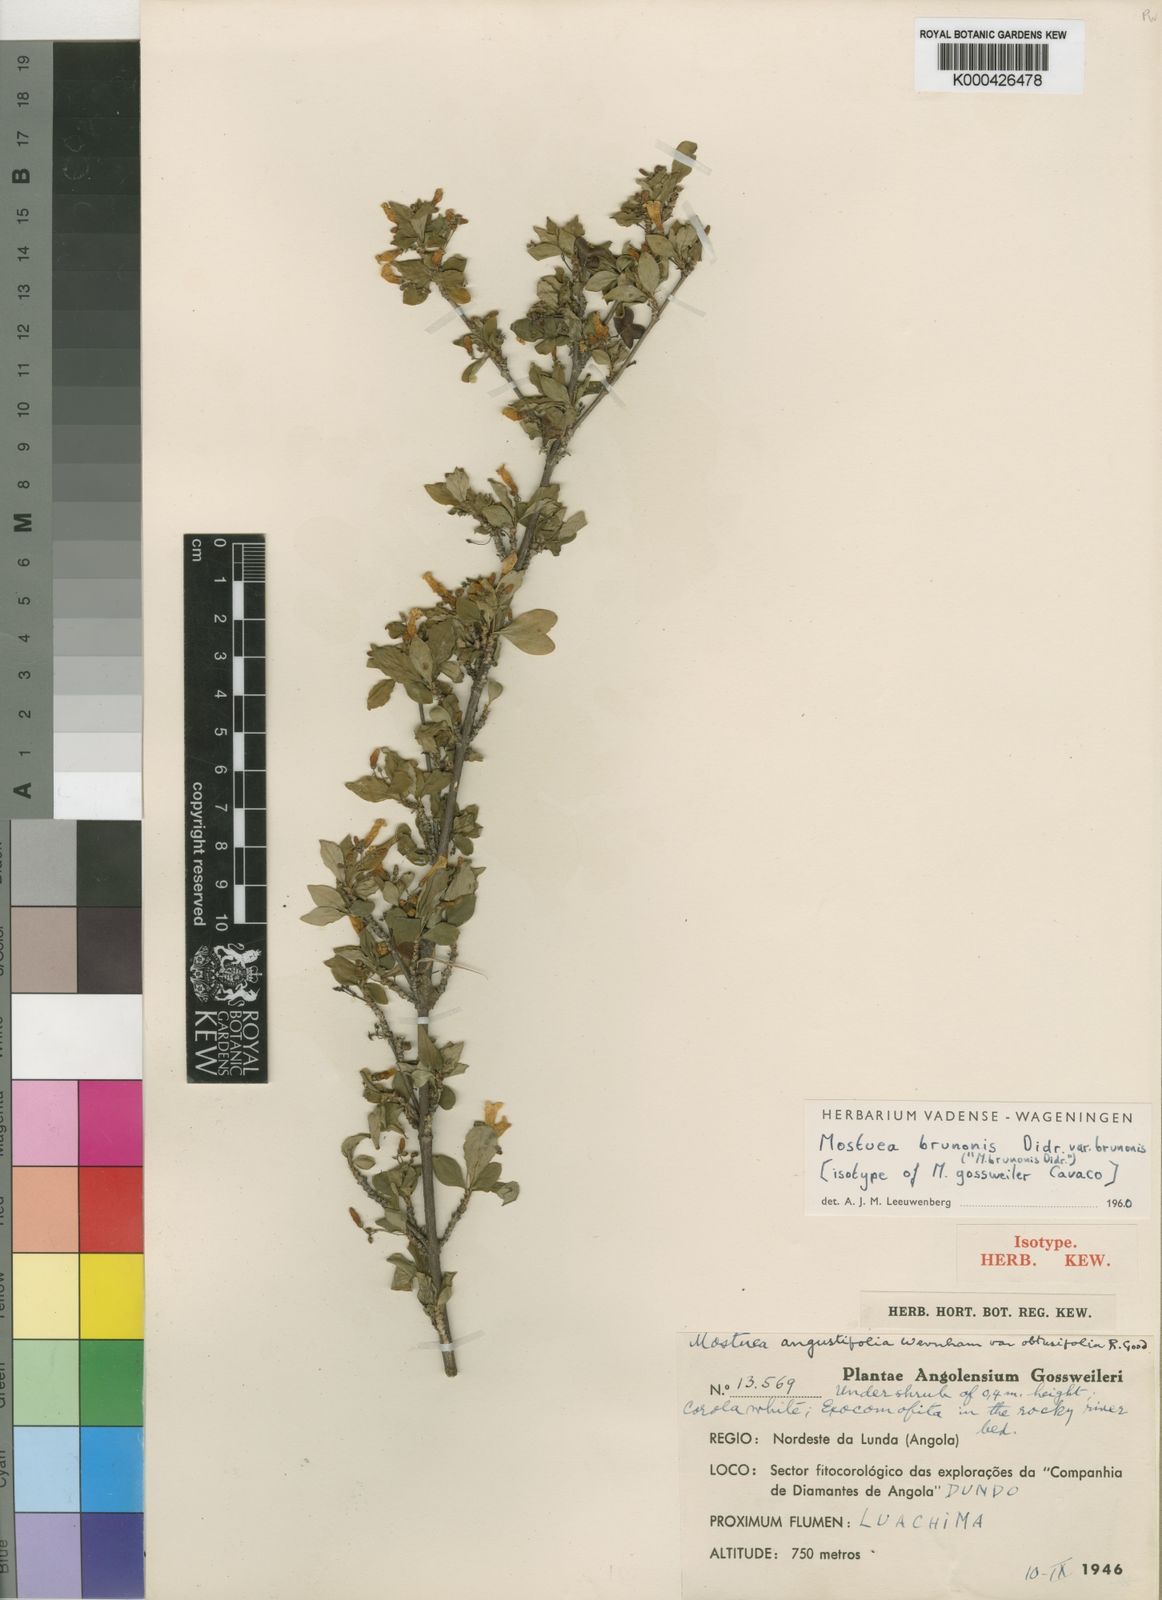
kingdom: Plantae
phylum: Tracheophyta
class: Magnoliopsida
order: Gentianales
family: Gelsemiaceae
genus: Mostuea
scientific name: Mostuea brunonis
